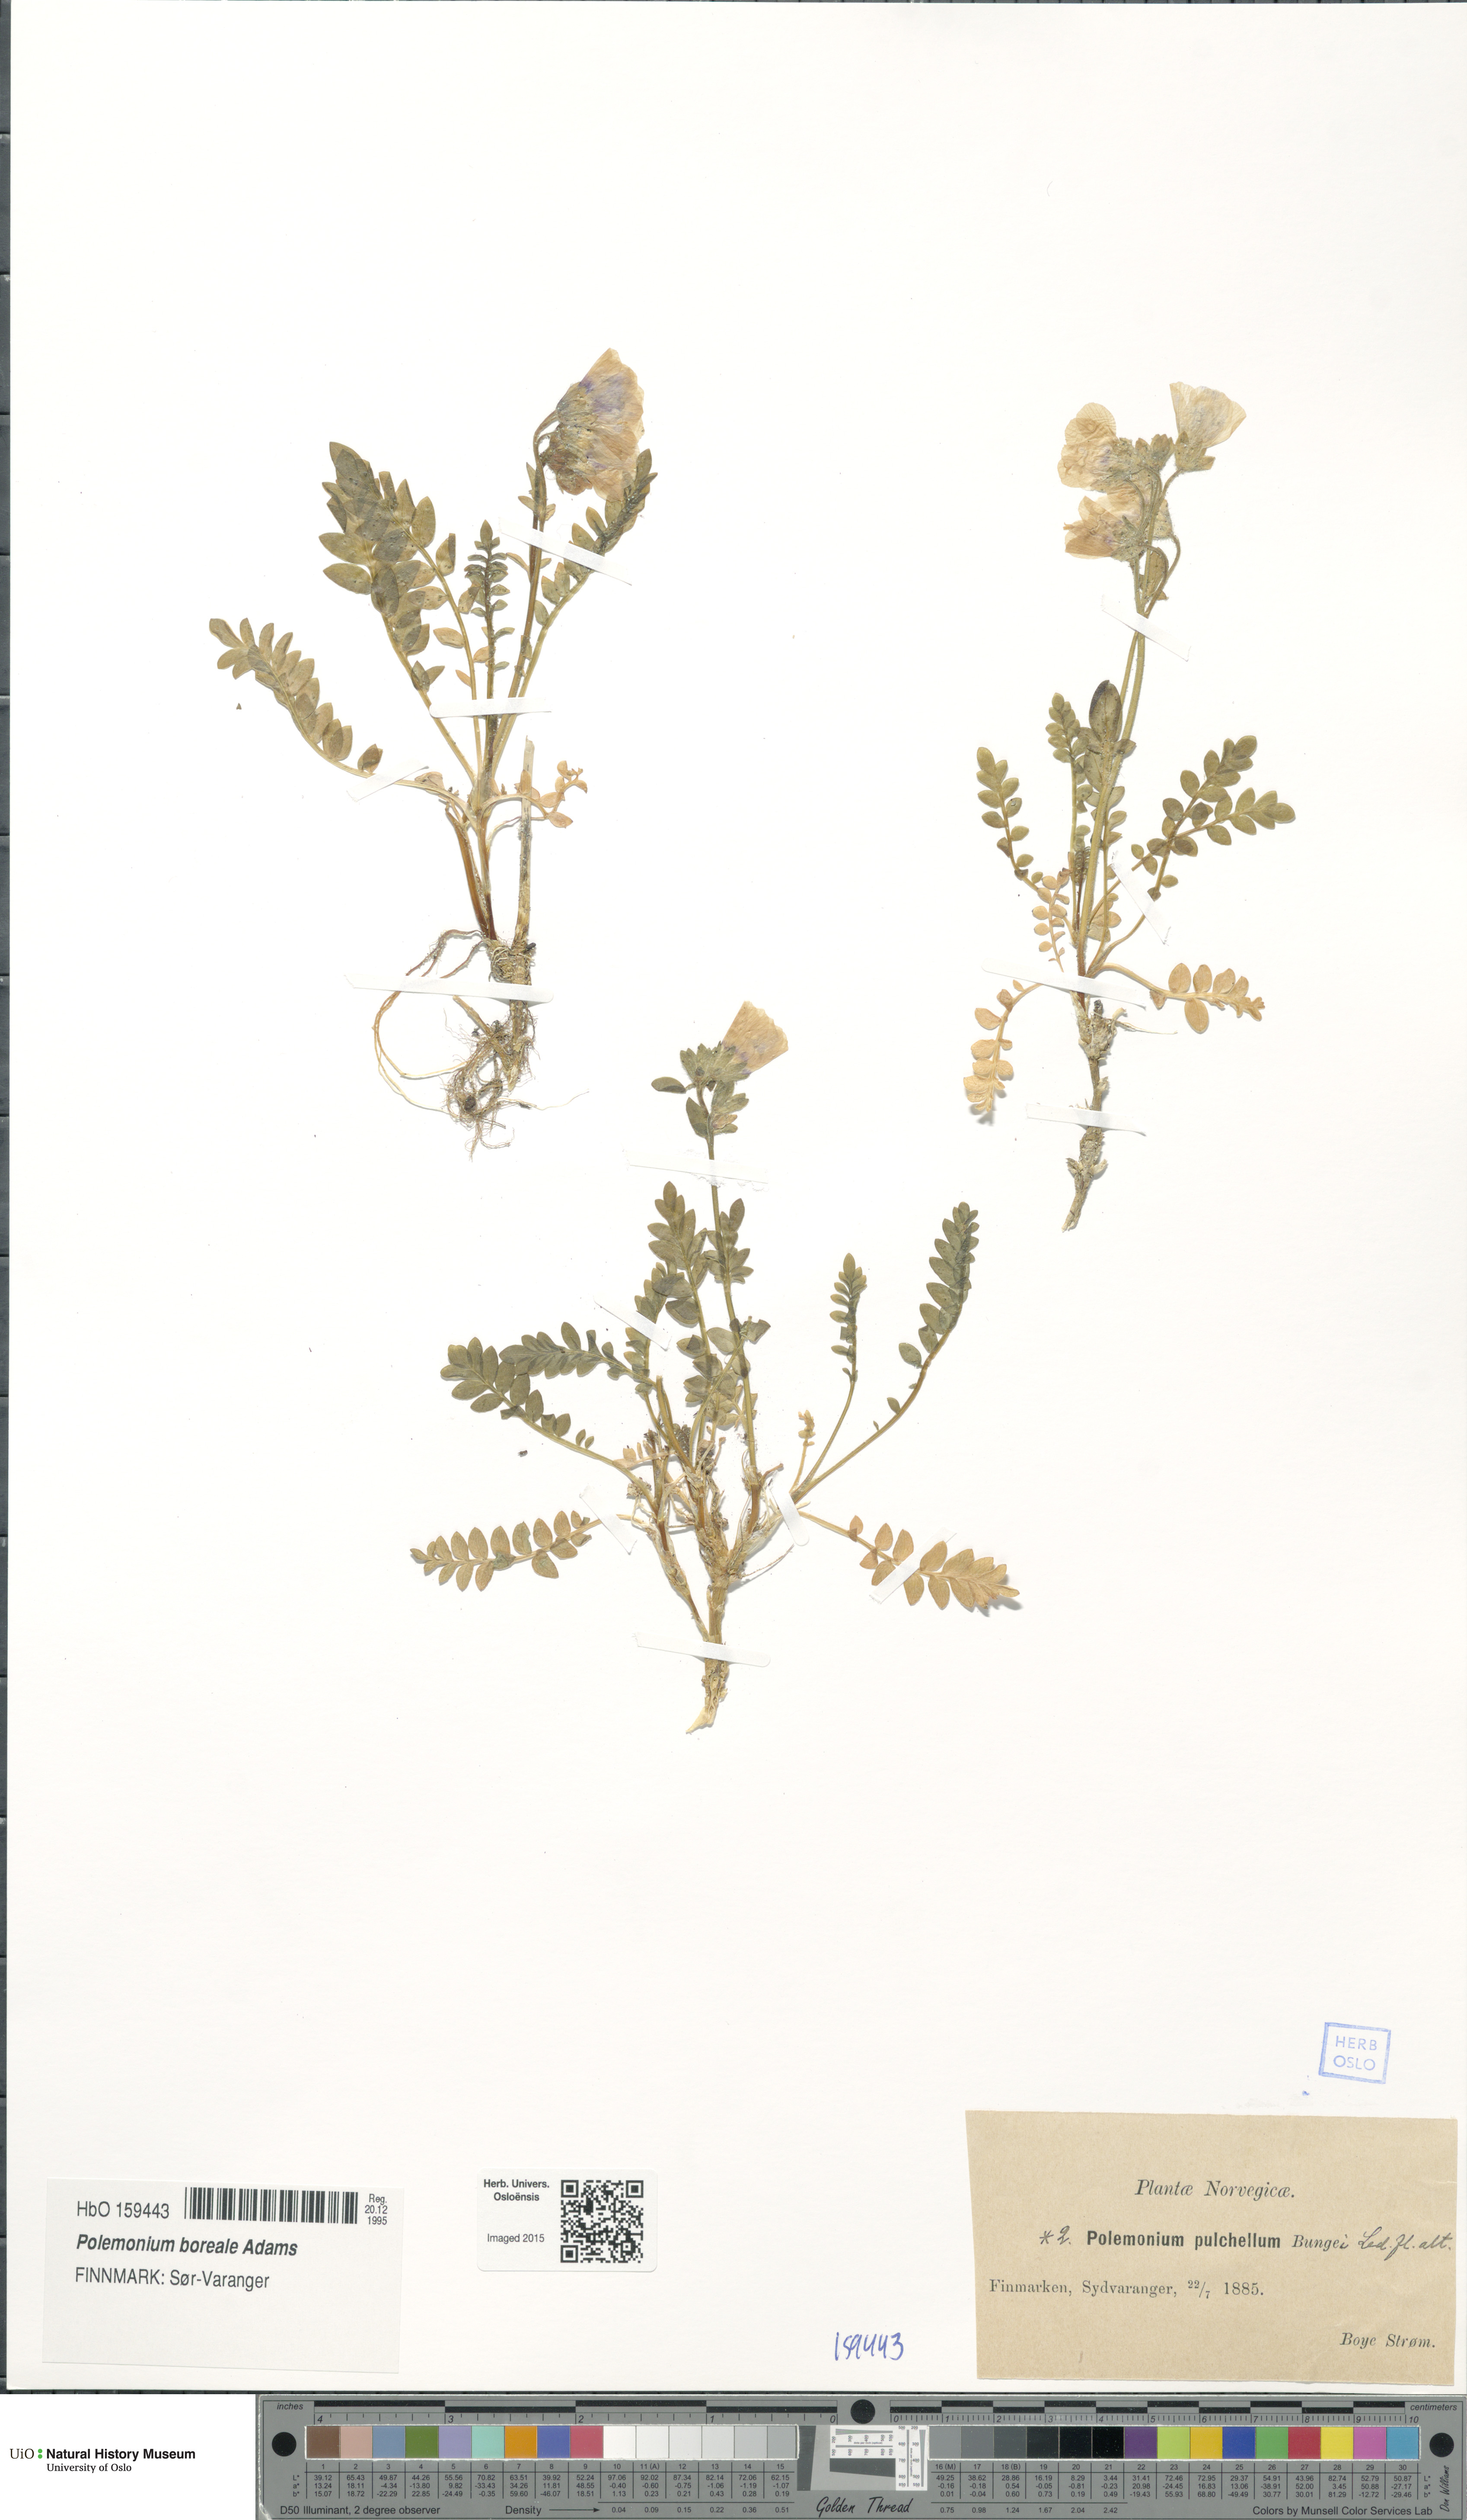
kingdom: Plantae
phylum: Tracheophyta
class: Magnoliopsida
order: Ericales
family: Polemoniaceae
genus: Polemonium
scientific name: Polemonium boreale
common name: Boreal jacob's-ladder
